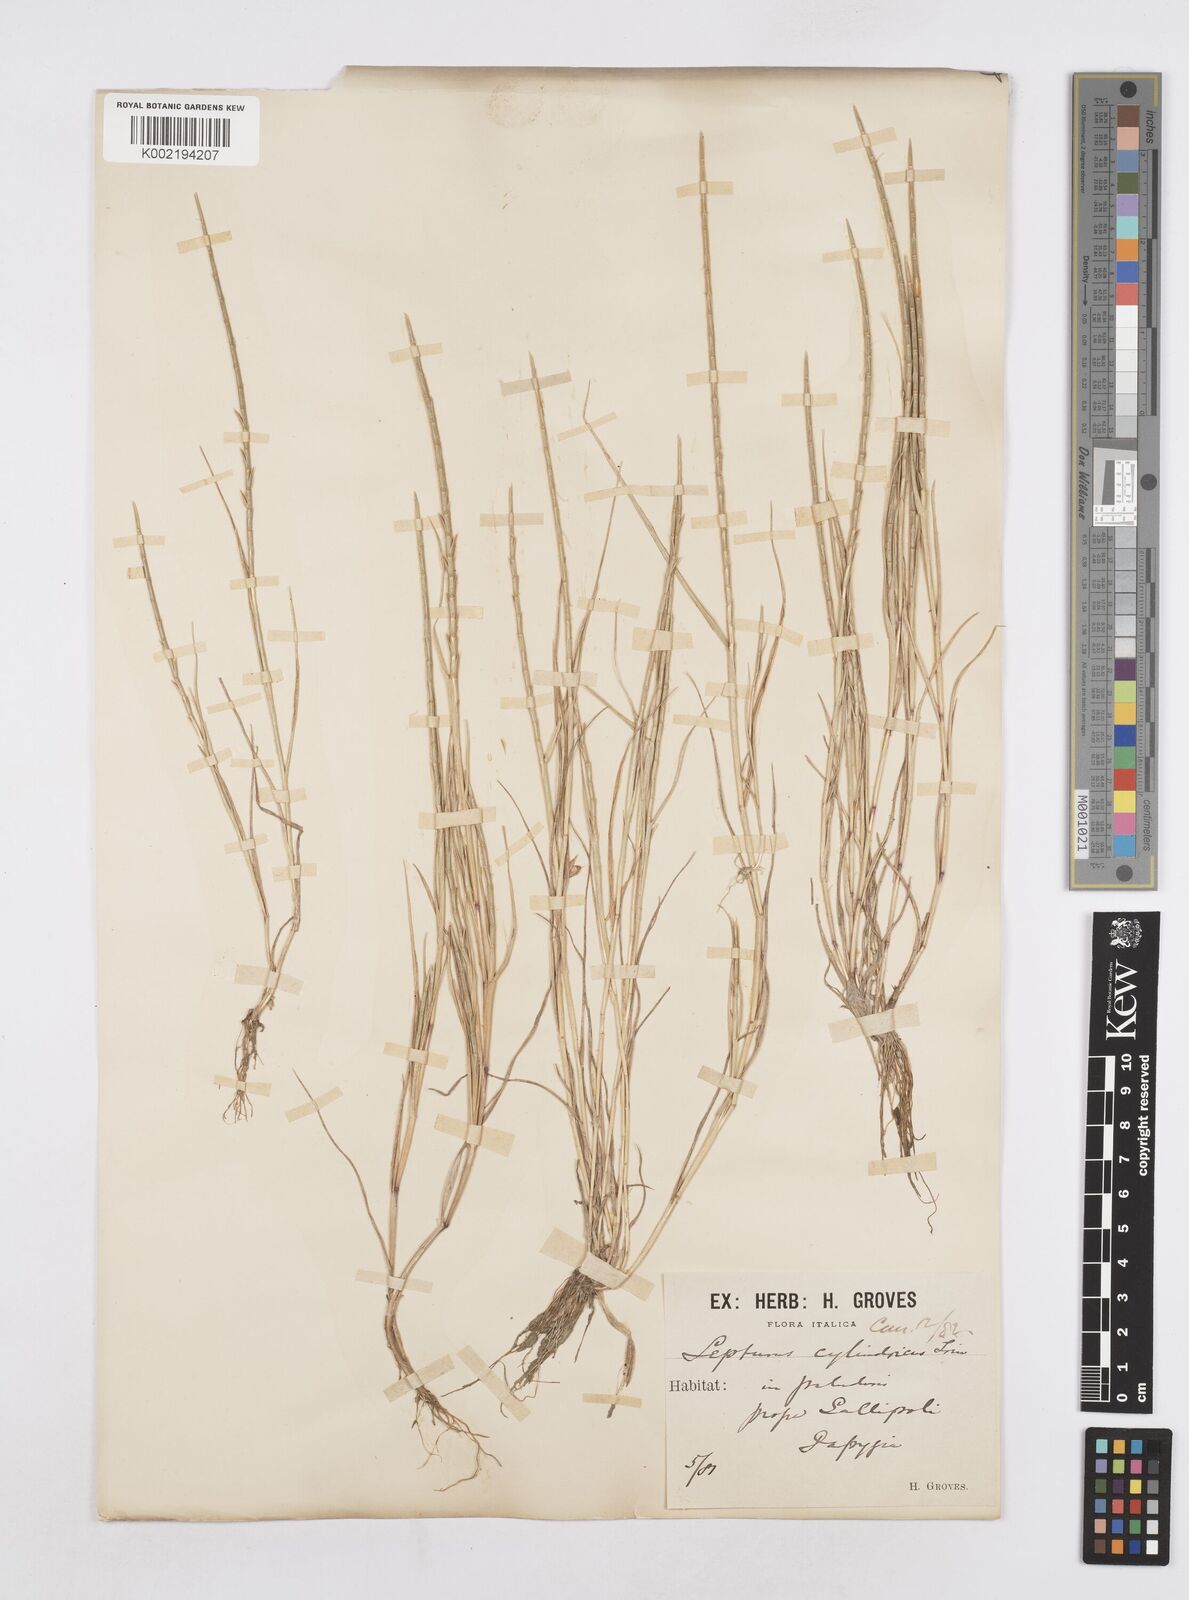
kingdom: Plantae
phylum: Tracheophyta
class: Liliopsida
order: Poales
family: Poaceae
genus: Parapholis
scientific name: Parapholis cylindrica
